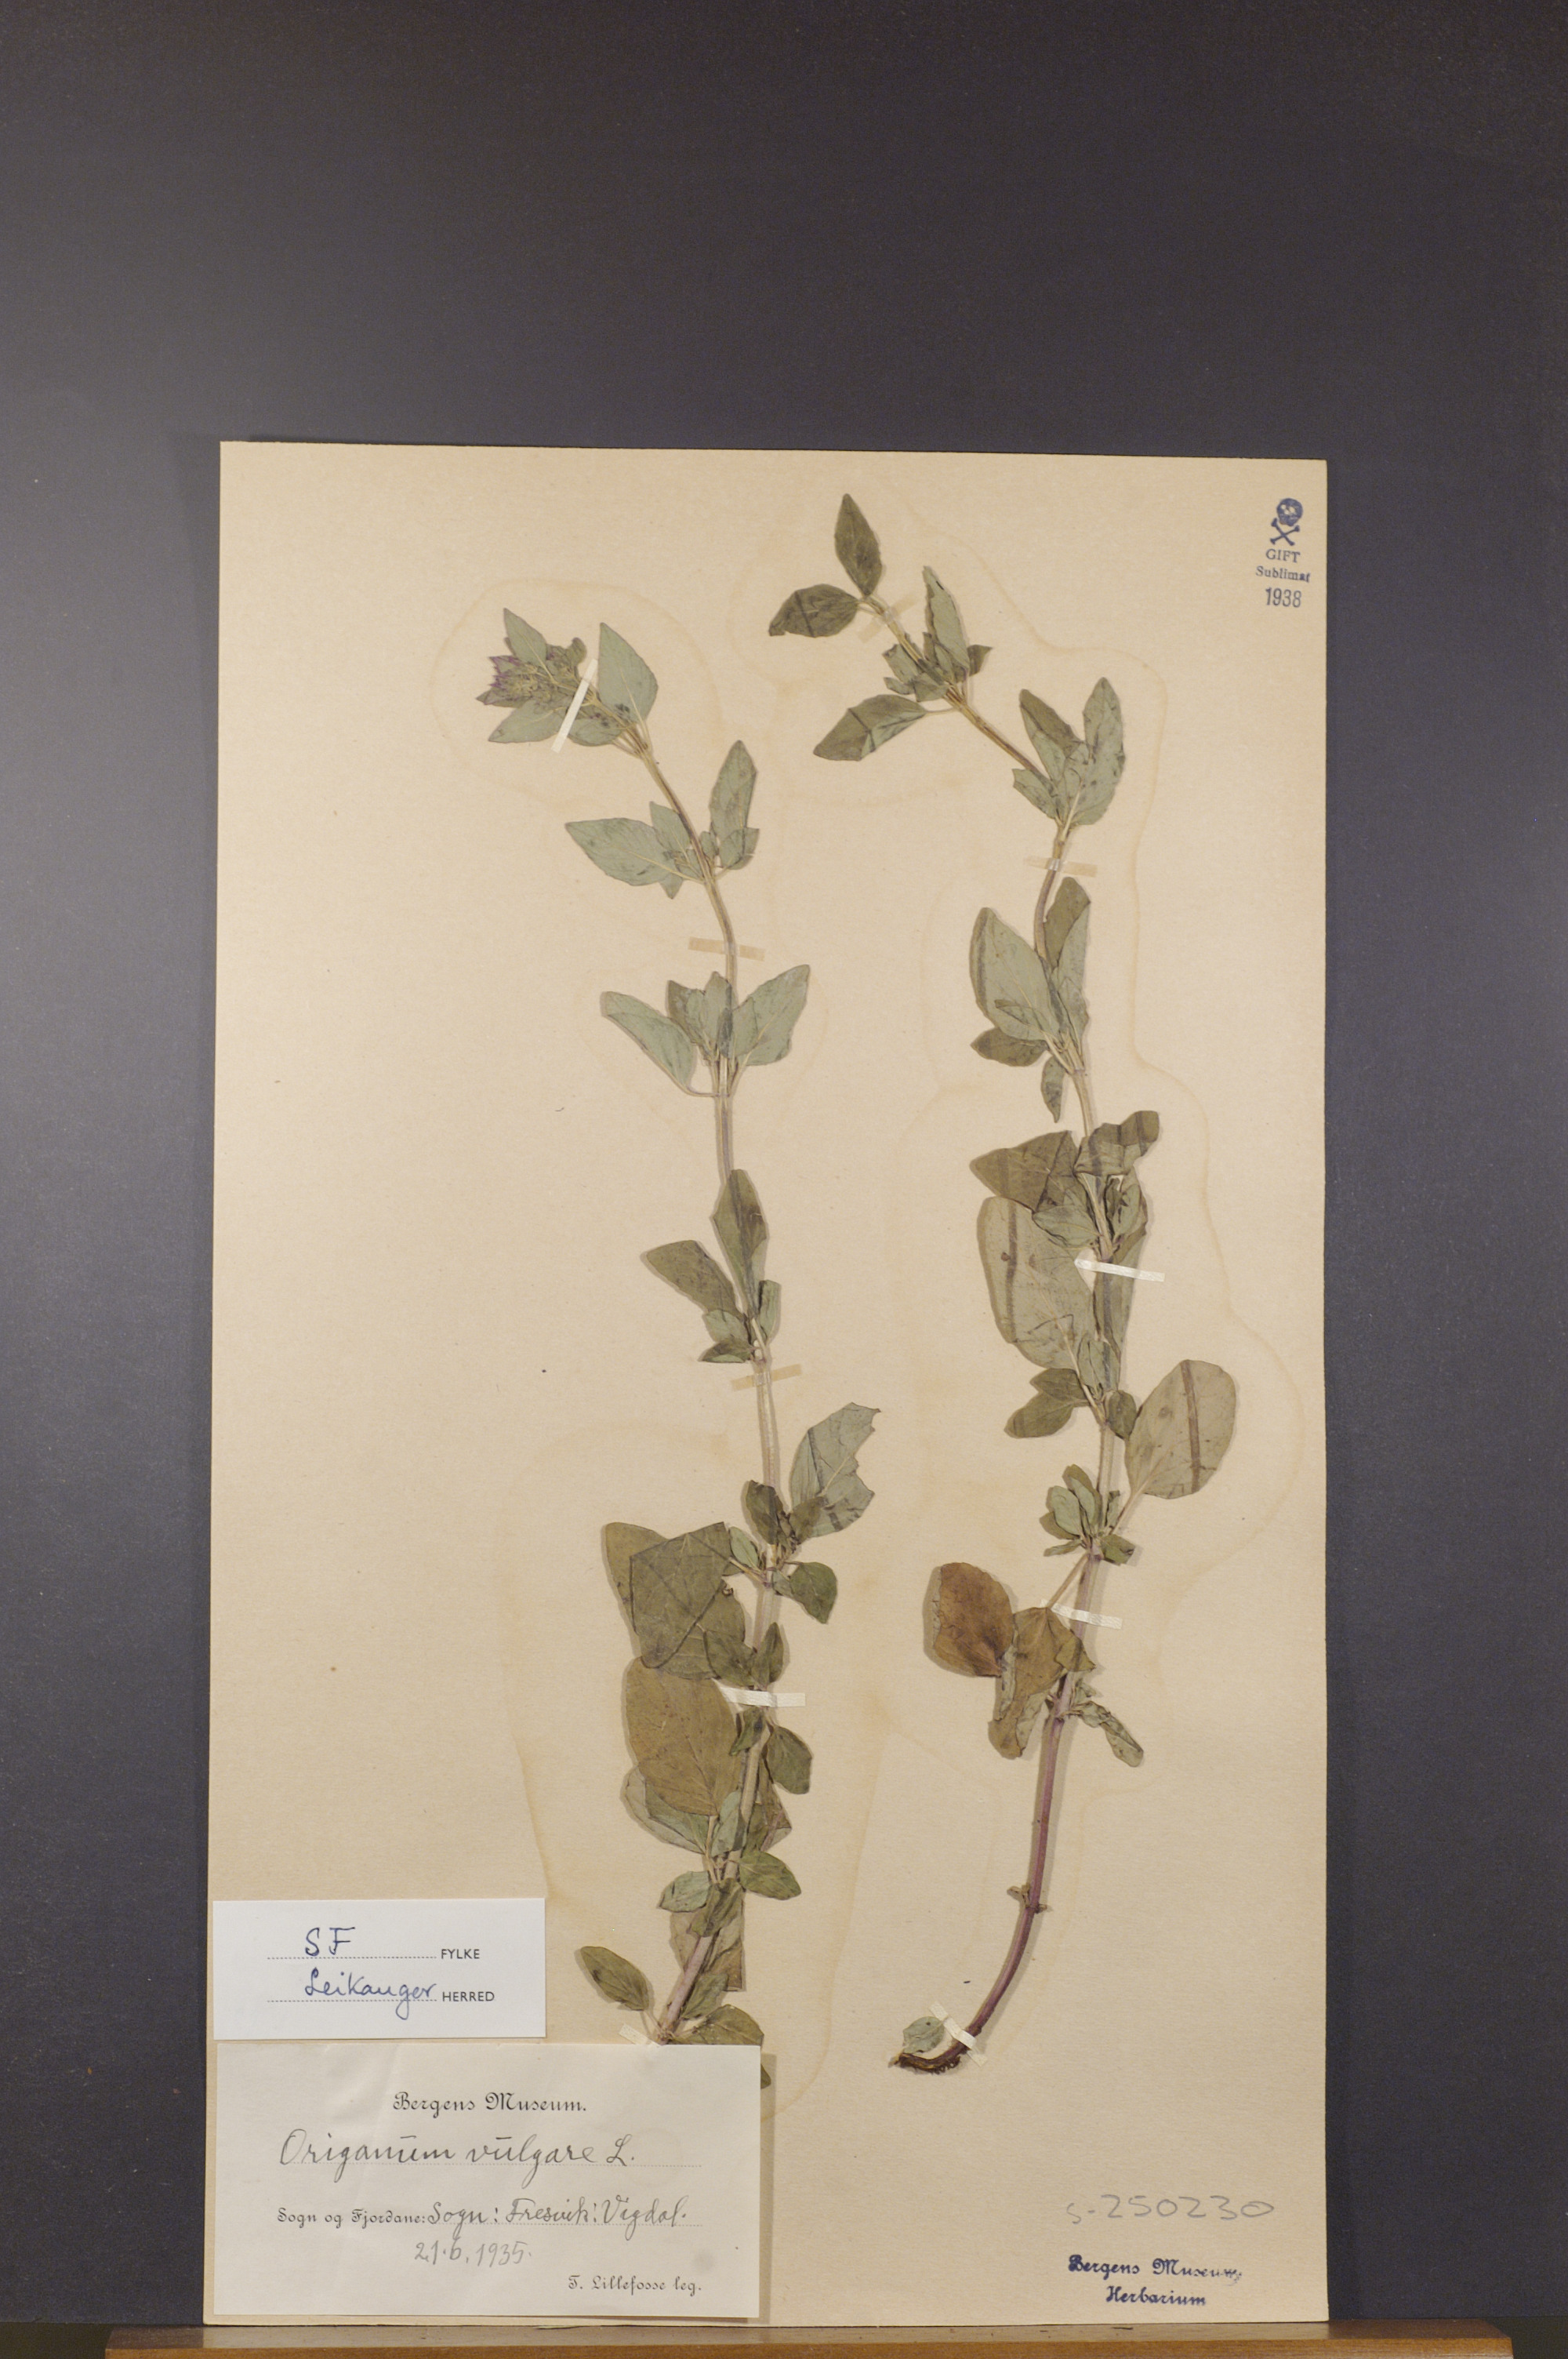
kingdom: Plantae
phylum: Tracheophyta
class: Magnoliopsida
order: Lamiales
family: Lamiaceae
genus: Origanum
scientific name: Origanum vulgare
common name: Wild marjoram
